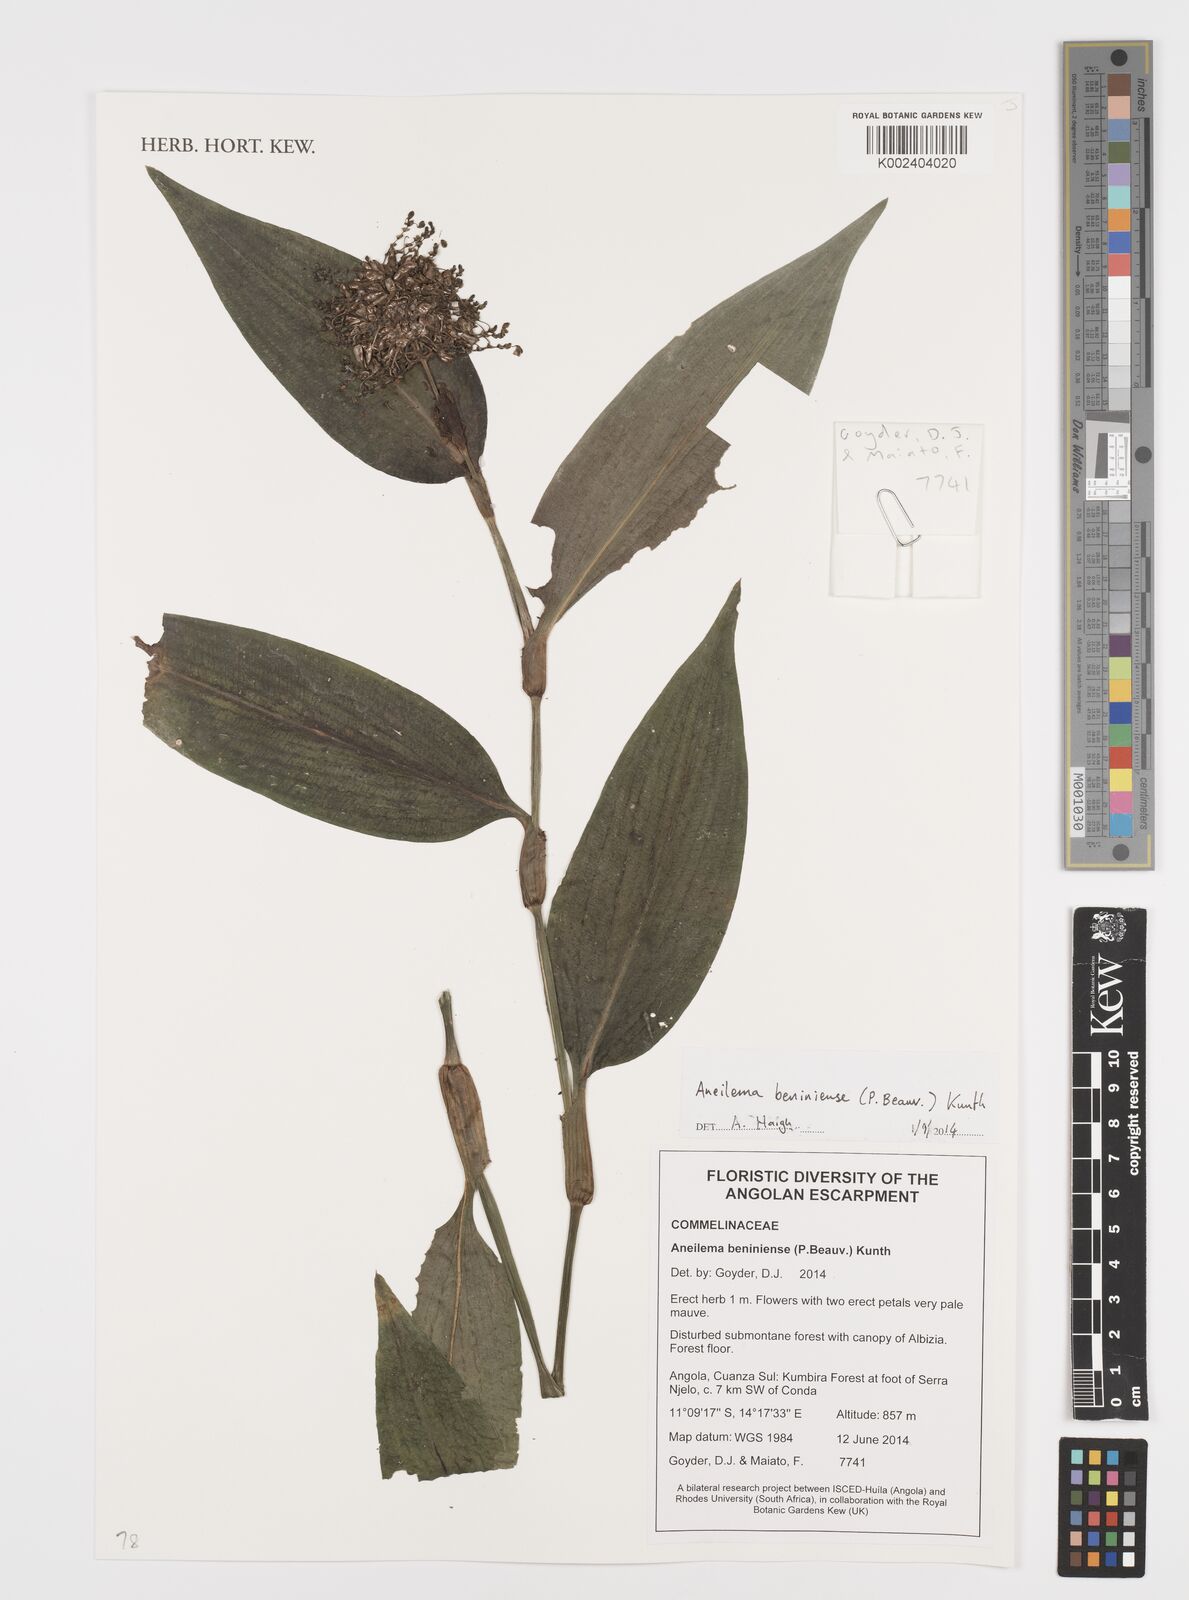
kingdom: Plantae
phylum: Tracheophyta
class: Liliopsida
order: Commelinales
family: Commelinaceae
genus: Aneilema
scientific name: Aneilema beniniense
